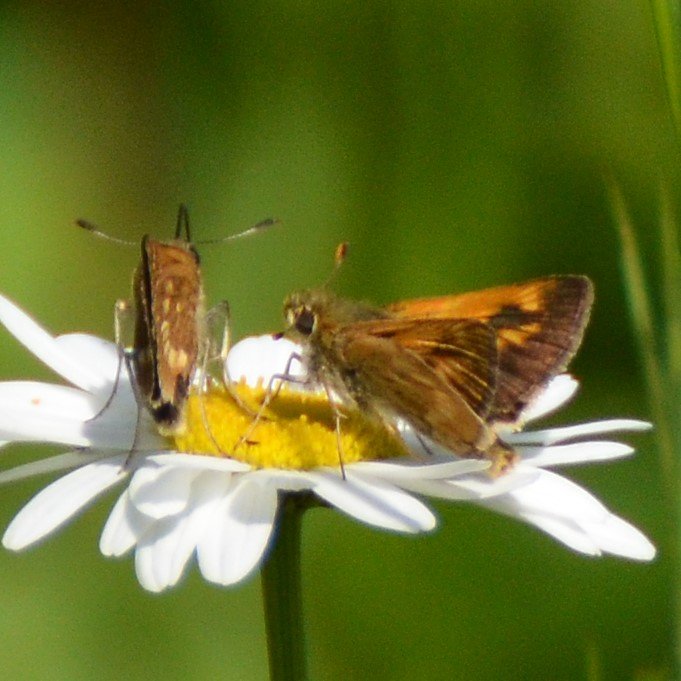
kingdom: Animalia
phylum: Arthropoda
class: Insecta
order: Lepidoptera
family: Hesperiidae
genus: Polites
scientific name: Polites
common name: Long Dash Skipper
